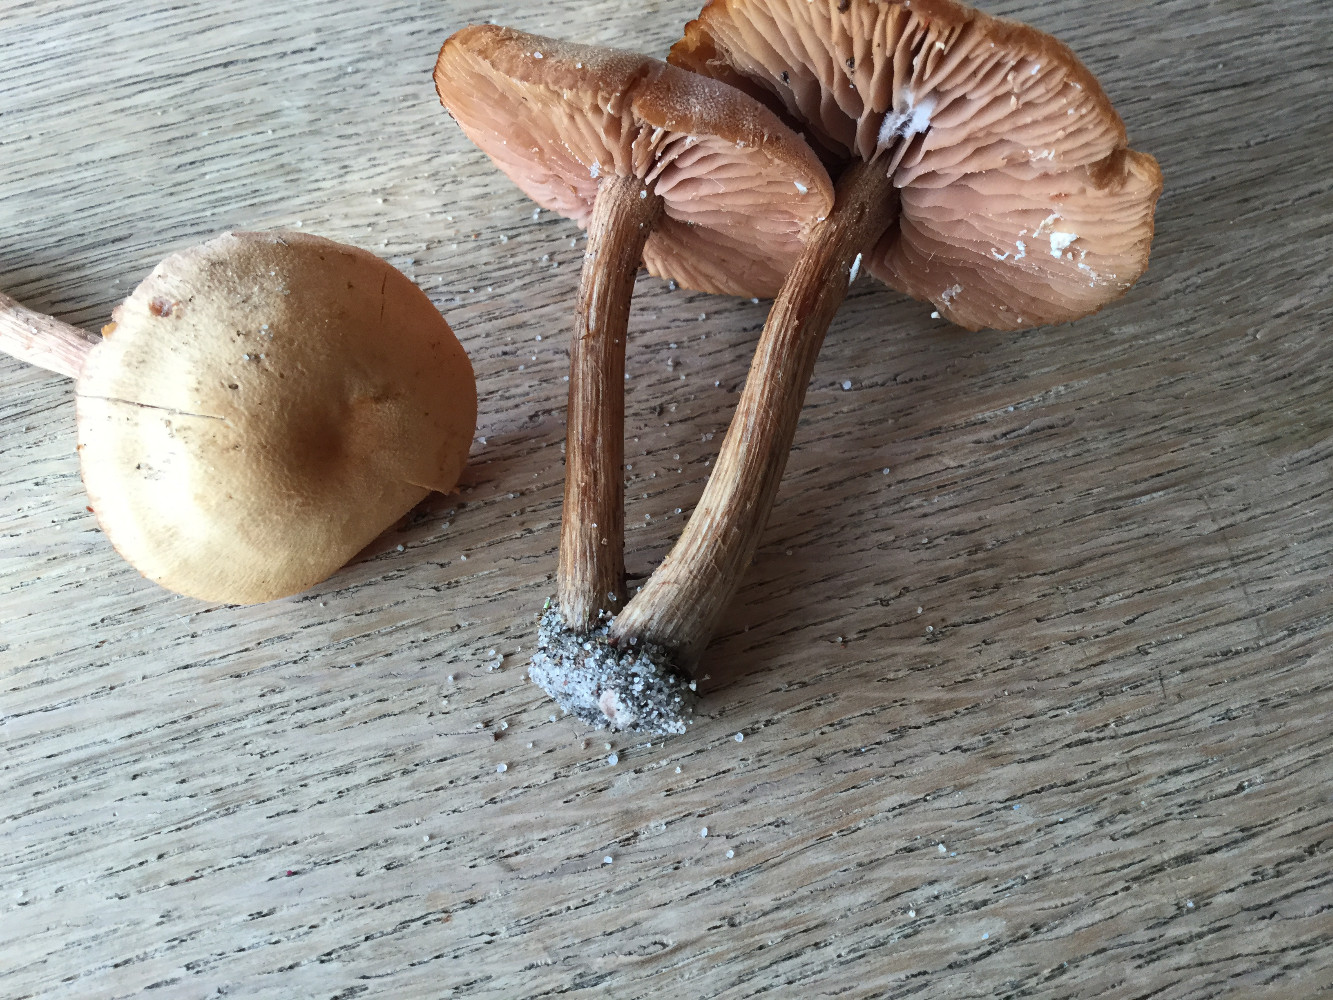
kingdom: Fungi
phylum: Basidiomycota
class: Agaricomycetes
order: Agaricales
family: Hydnangiaceae
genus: Laccaria
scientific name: Laccaria proxima
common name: stor ametysthat
